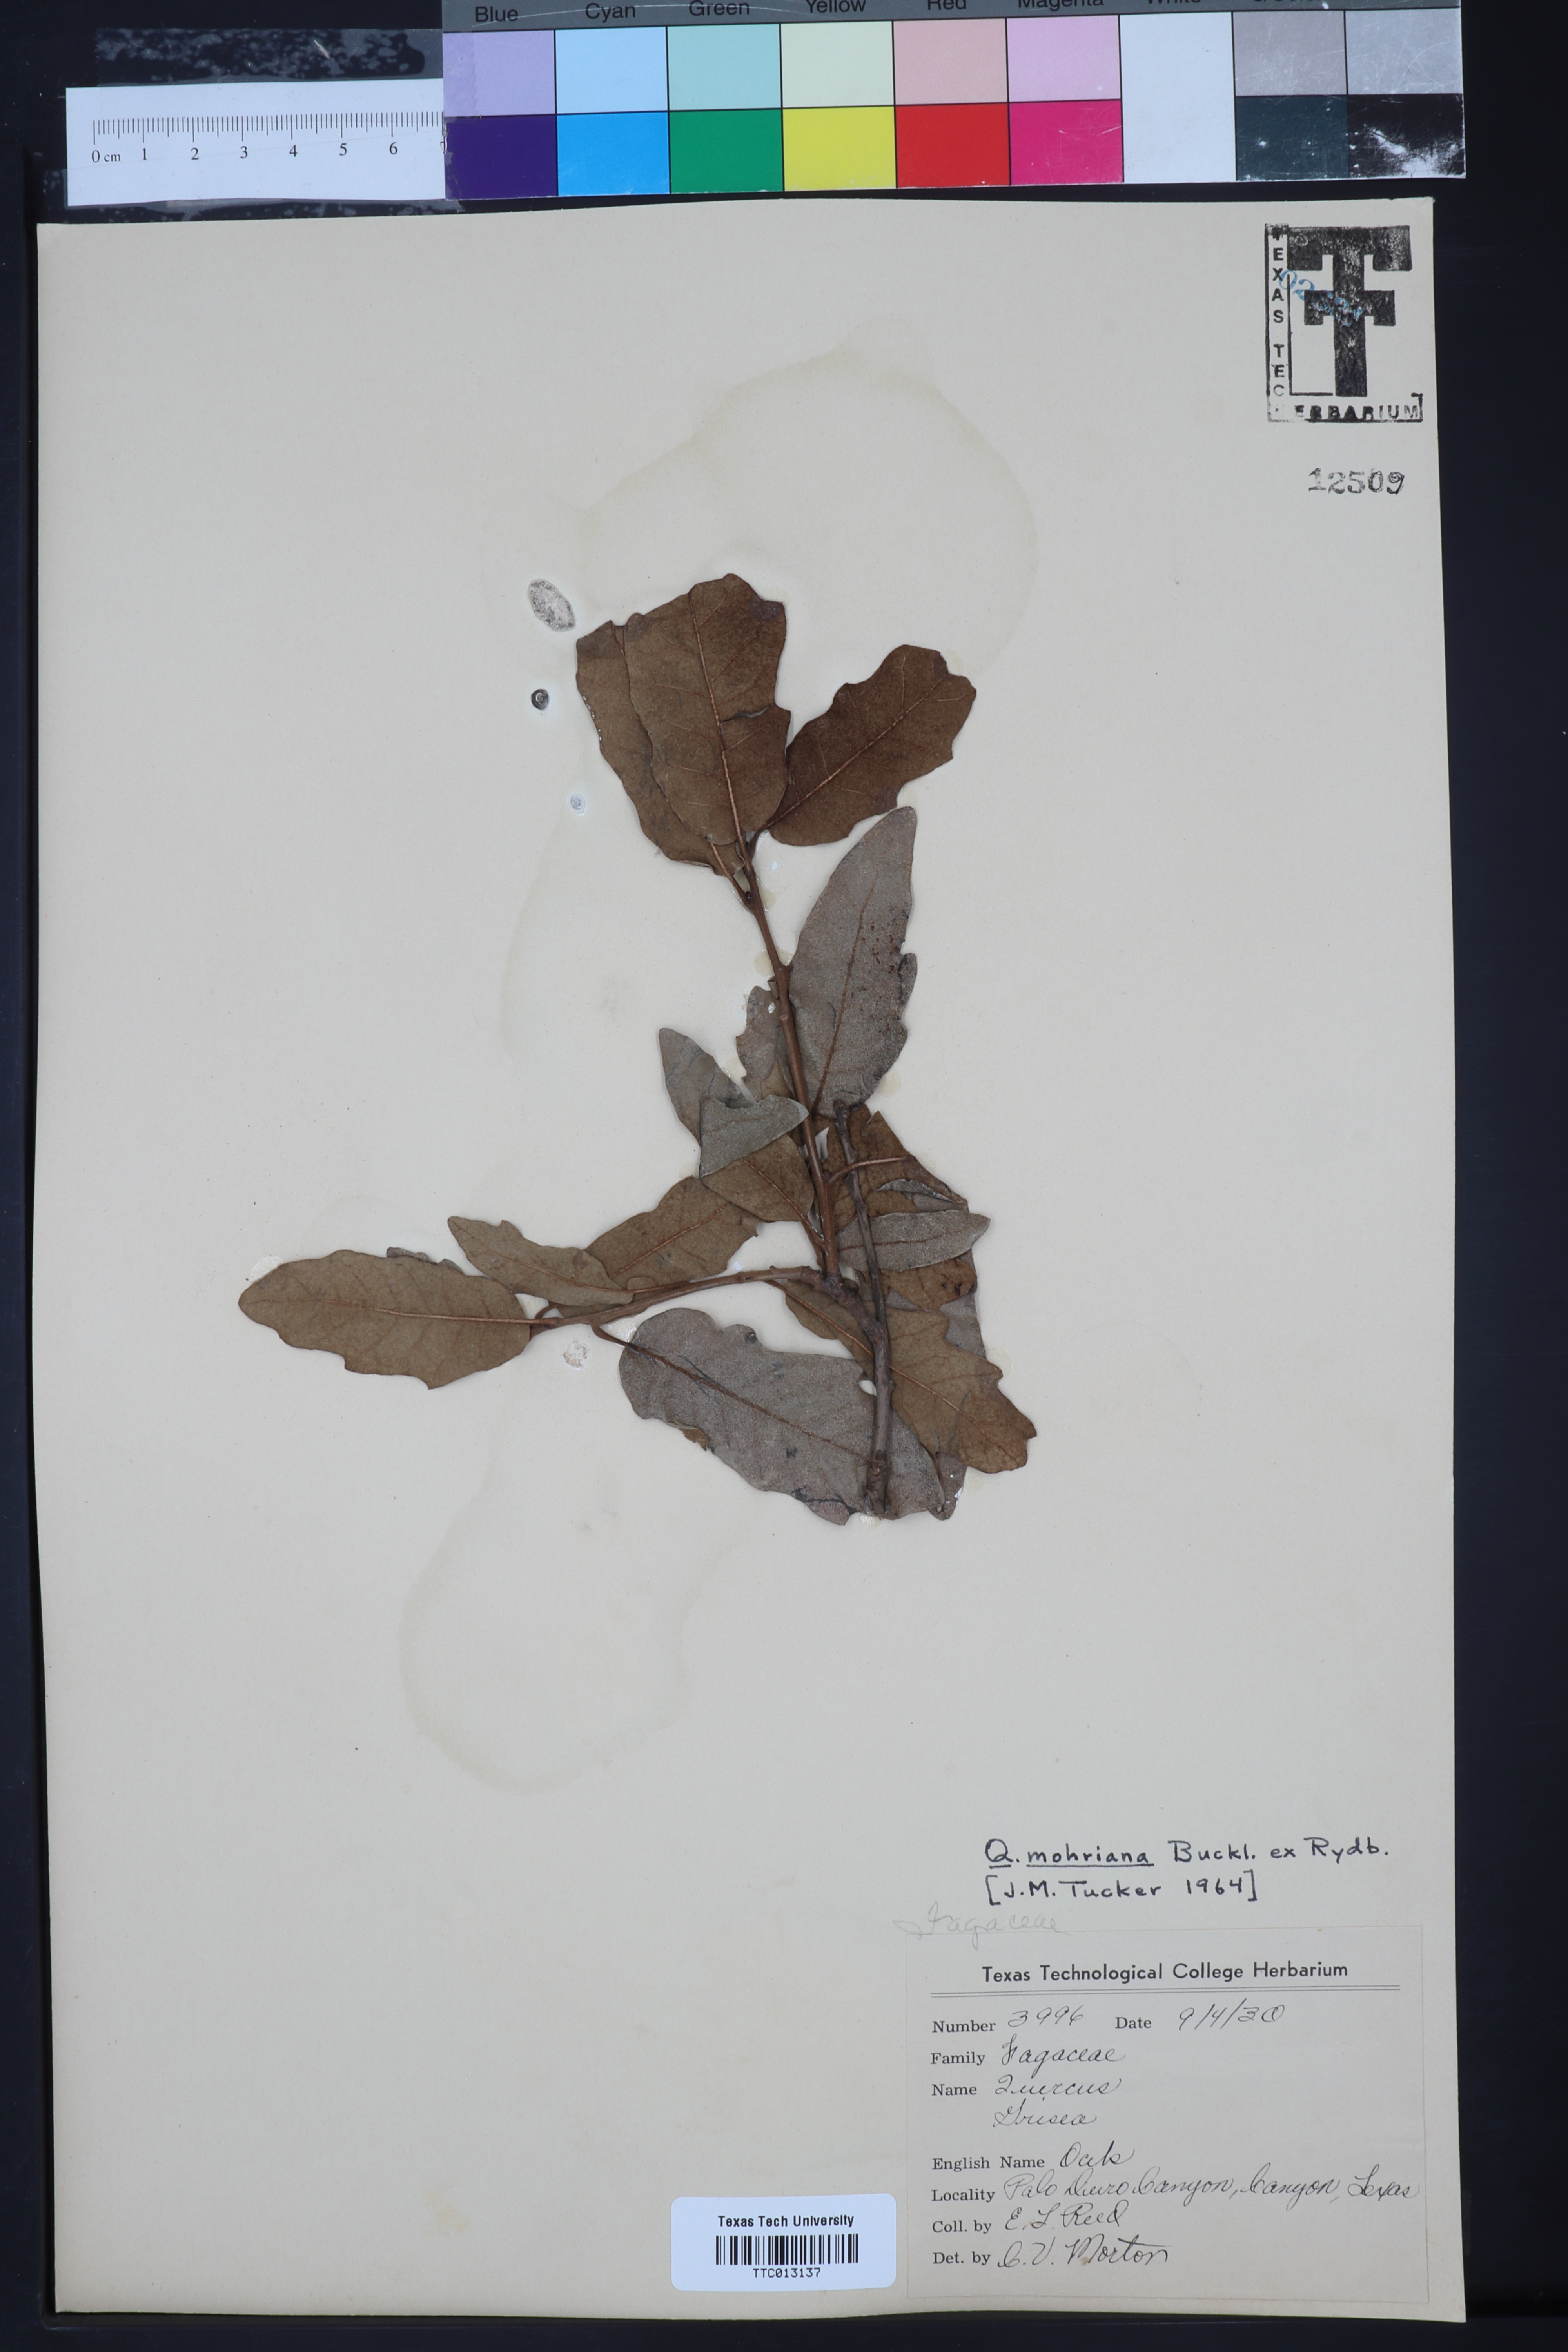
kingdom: Plantae
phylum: Tracheophyta
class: Magnoliopsida
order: Fagales
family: Fagaceae
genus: Quercus
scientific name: Quercus mohriana
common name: Mohr oak
